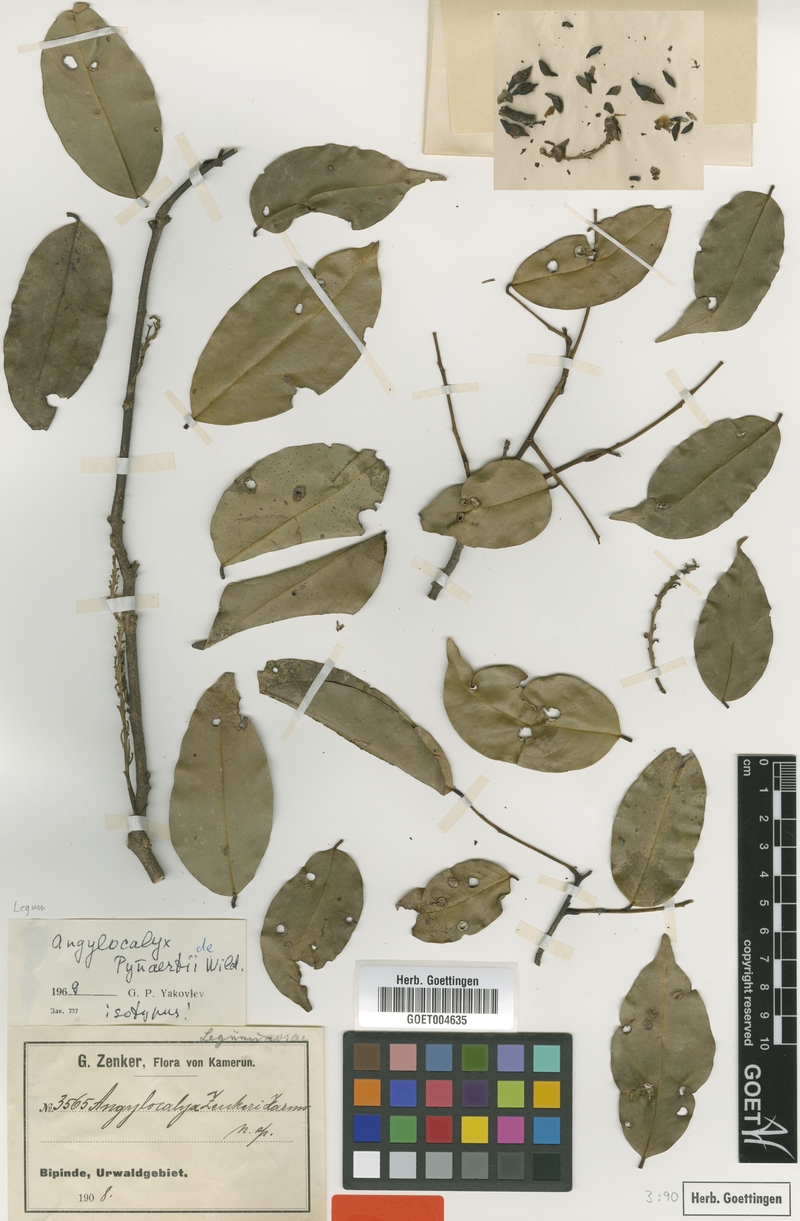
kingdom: Plantae
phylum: Tracheophyta
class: Magnoliopsida
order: Fabales
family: Fabaceae
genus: Angylocalyx
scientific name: Angylocalyx pynaertii
